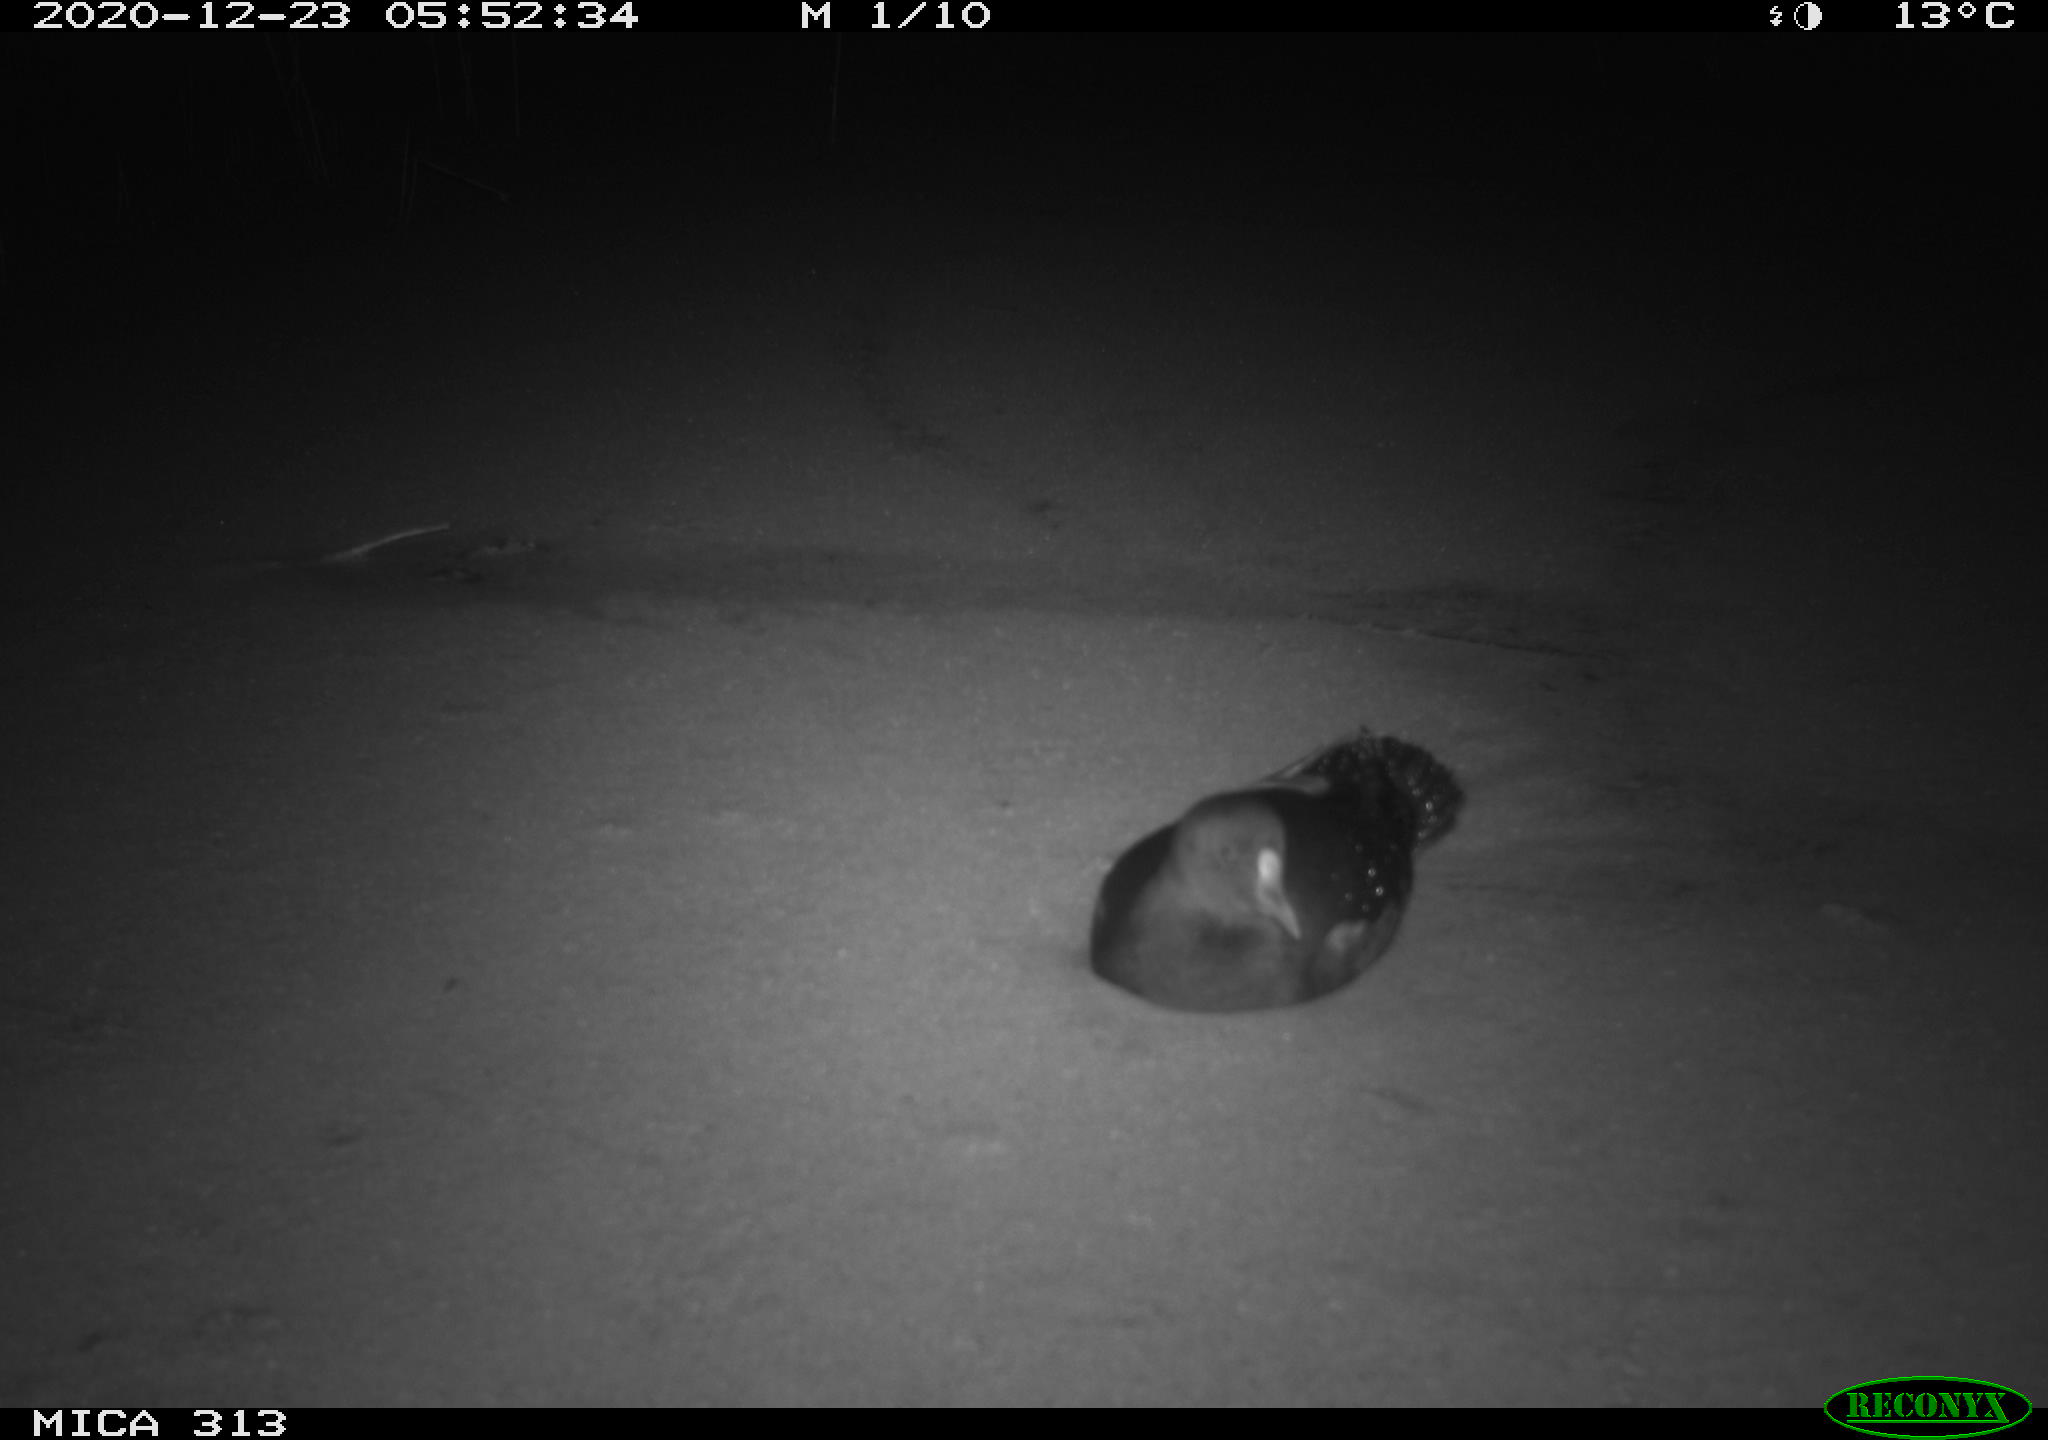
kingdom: Animalia
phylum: Chordata
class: Aves
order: Gruiformes
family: Rallidae
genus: Gallinula
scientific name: Gallinula chloropus
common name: Common moorhen
